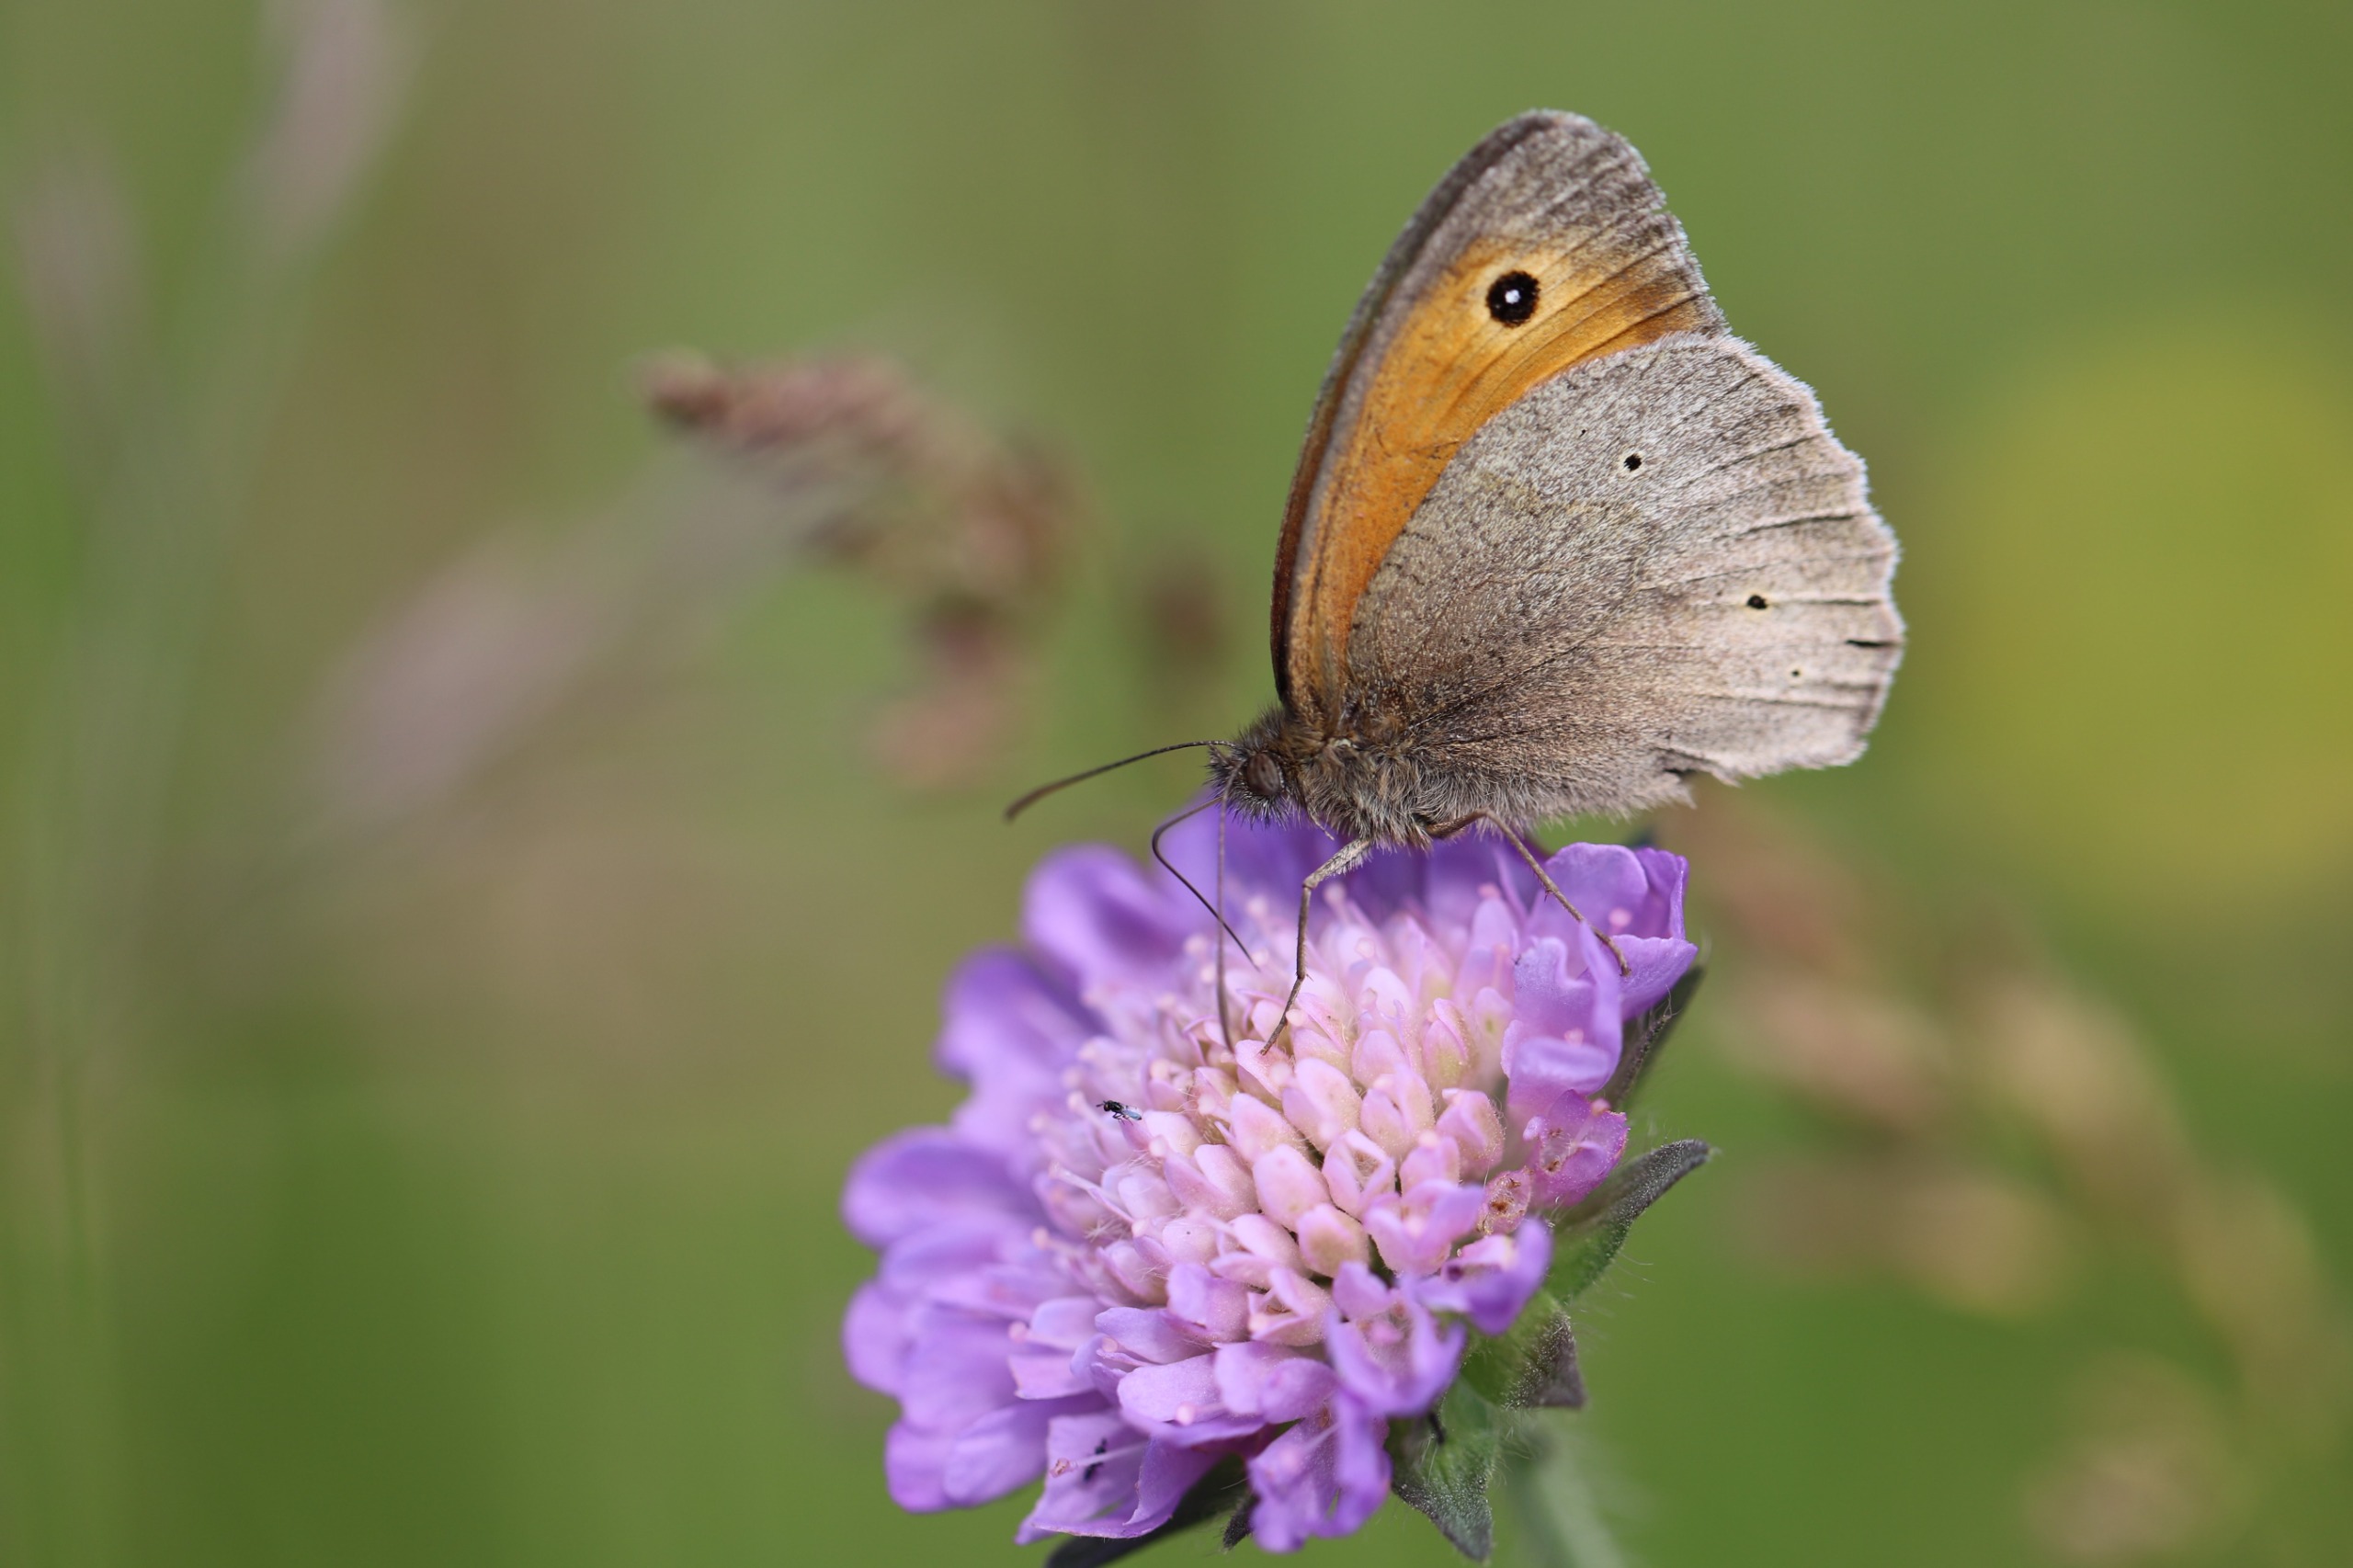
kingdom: Animalia
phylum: Arthropoda
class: Insecta
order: Lepidoptera
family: Nymphalidae
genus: Maniola
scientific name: Maniola jurtina
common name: Græsrandøje
